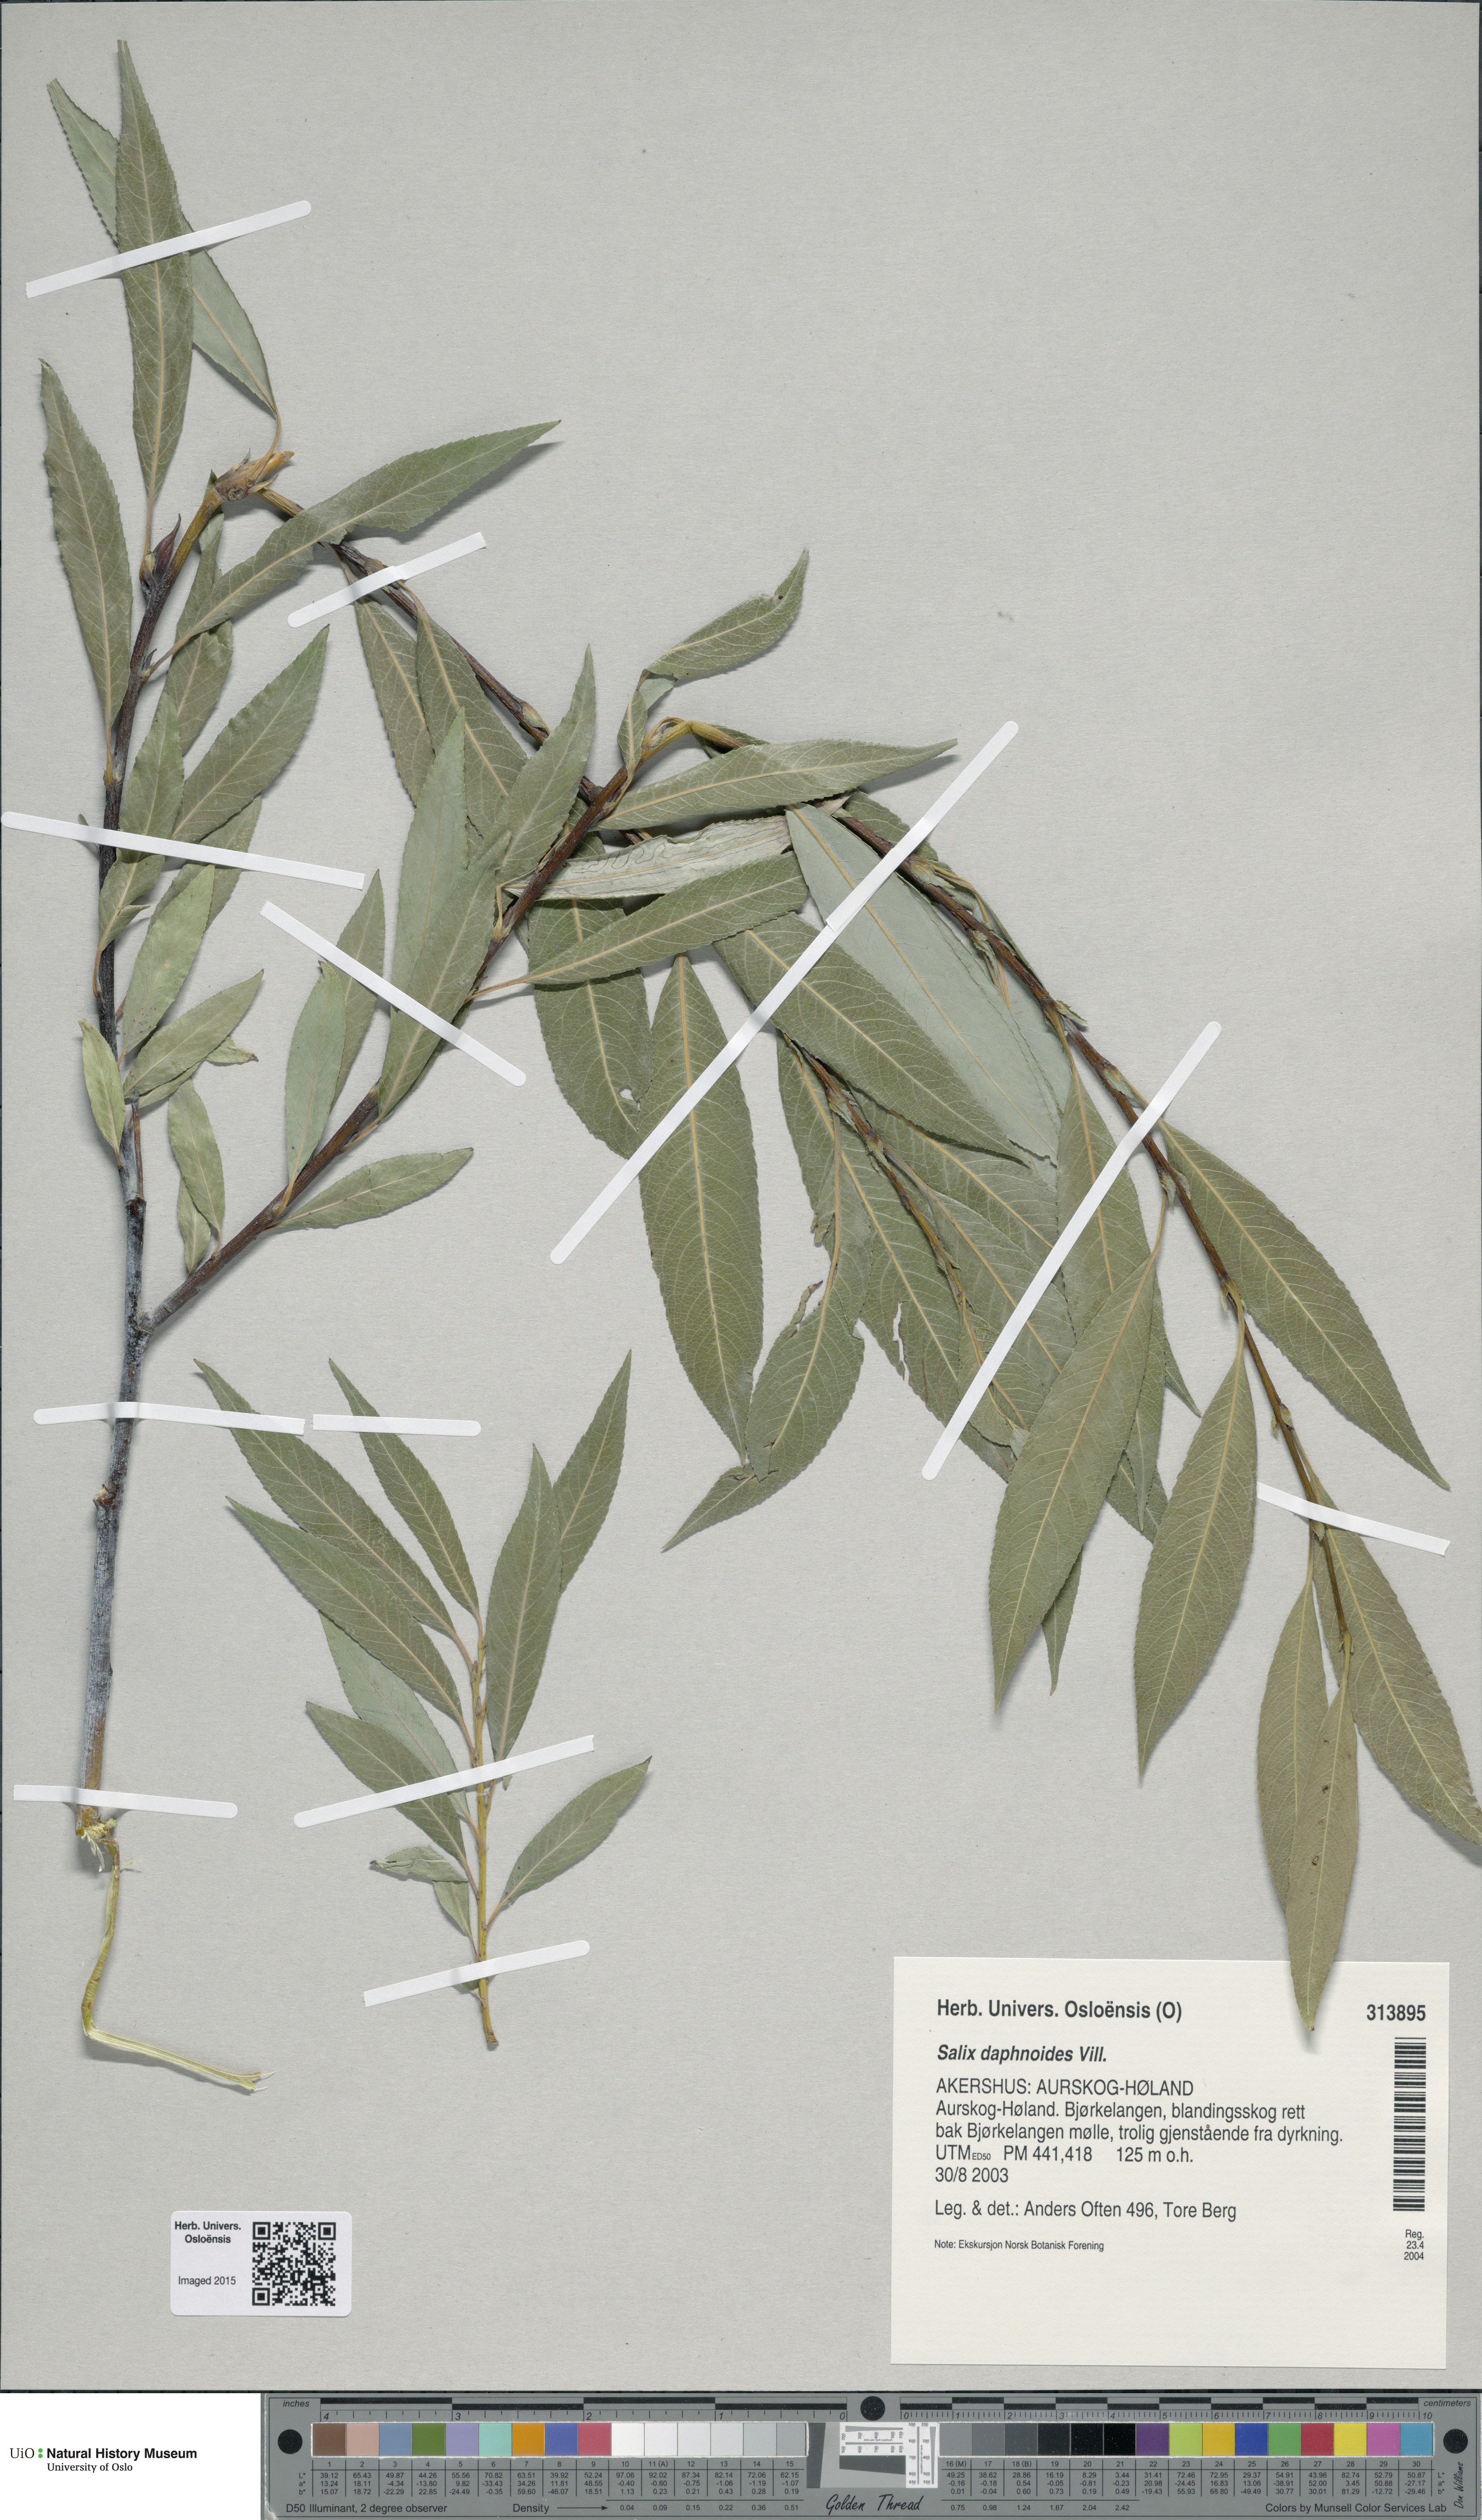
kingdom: Plantae
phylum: Tracheophyta
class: Magnoliopsida
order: Malpighiales
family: Salicaceae
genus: Salix
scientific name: Salix daphnoides
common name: European violet-willow
